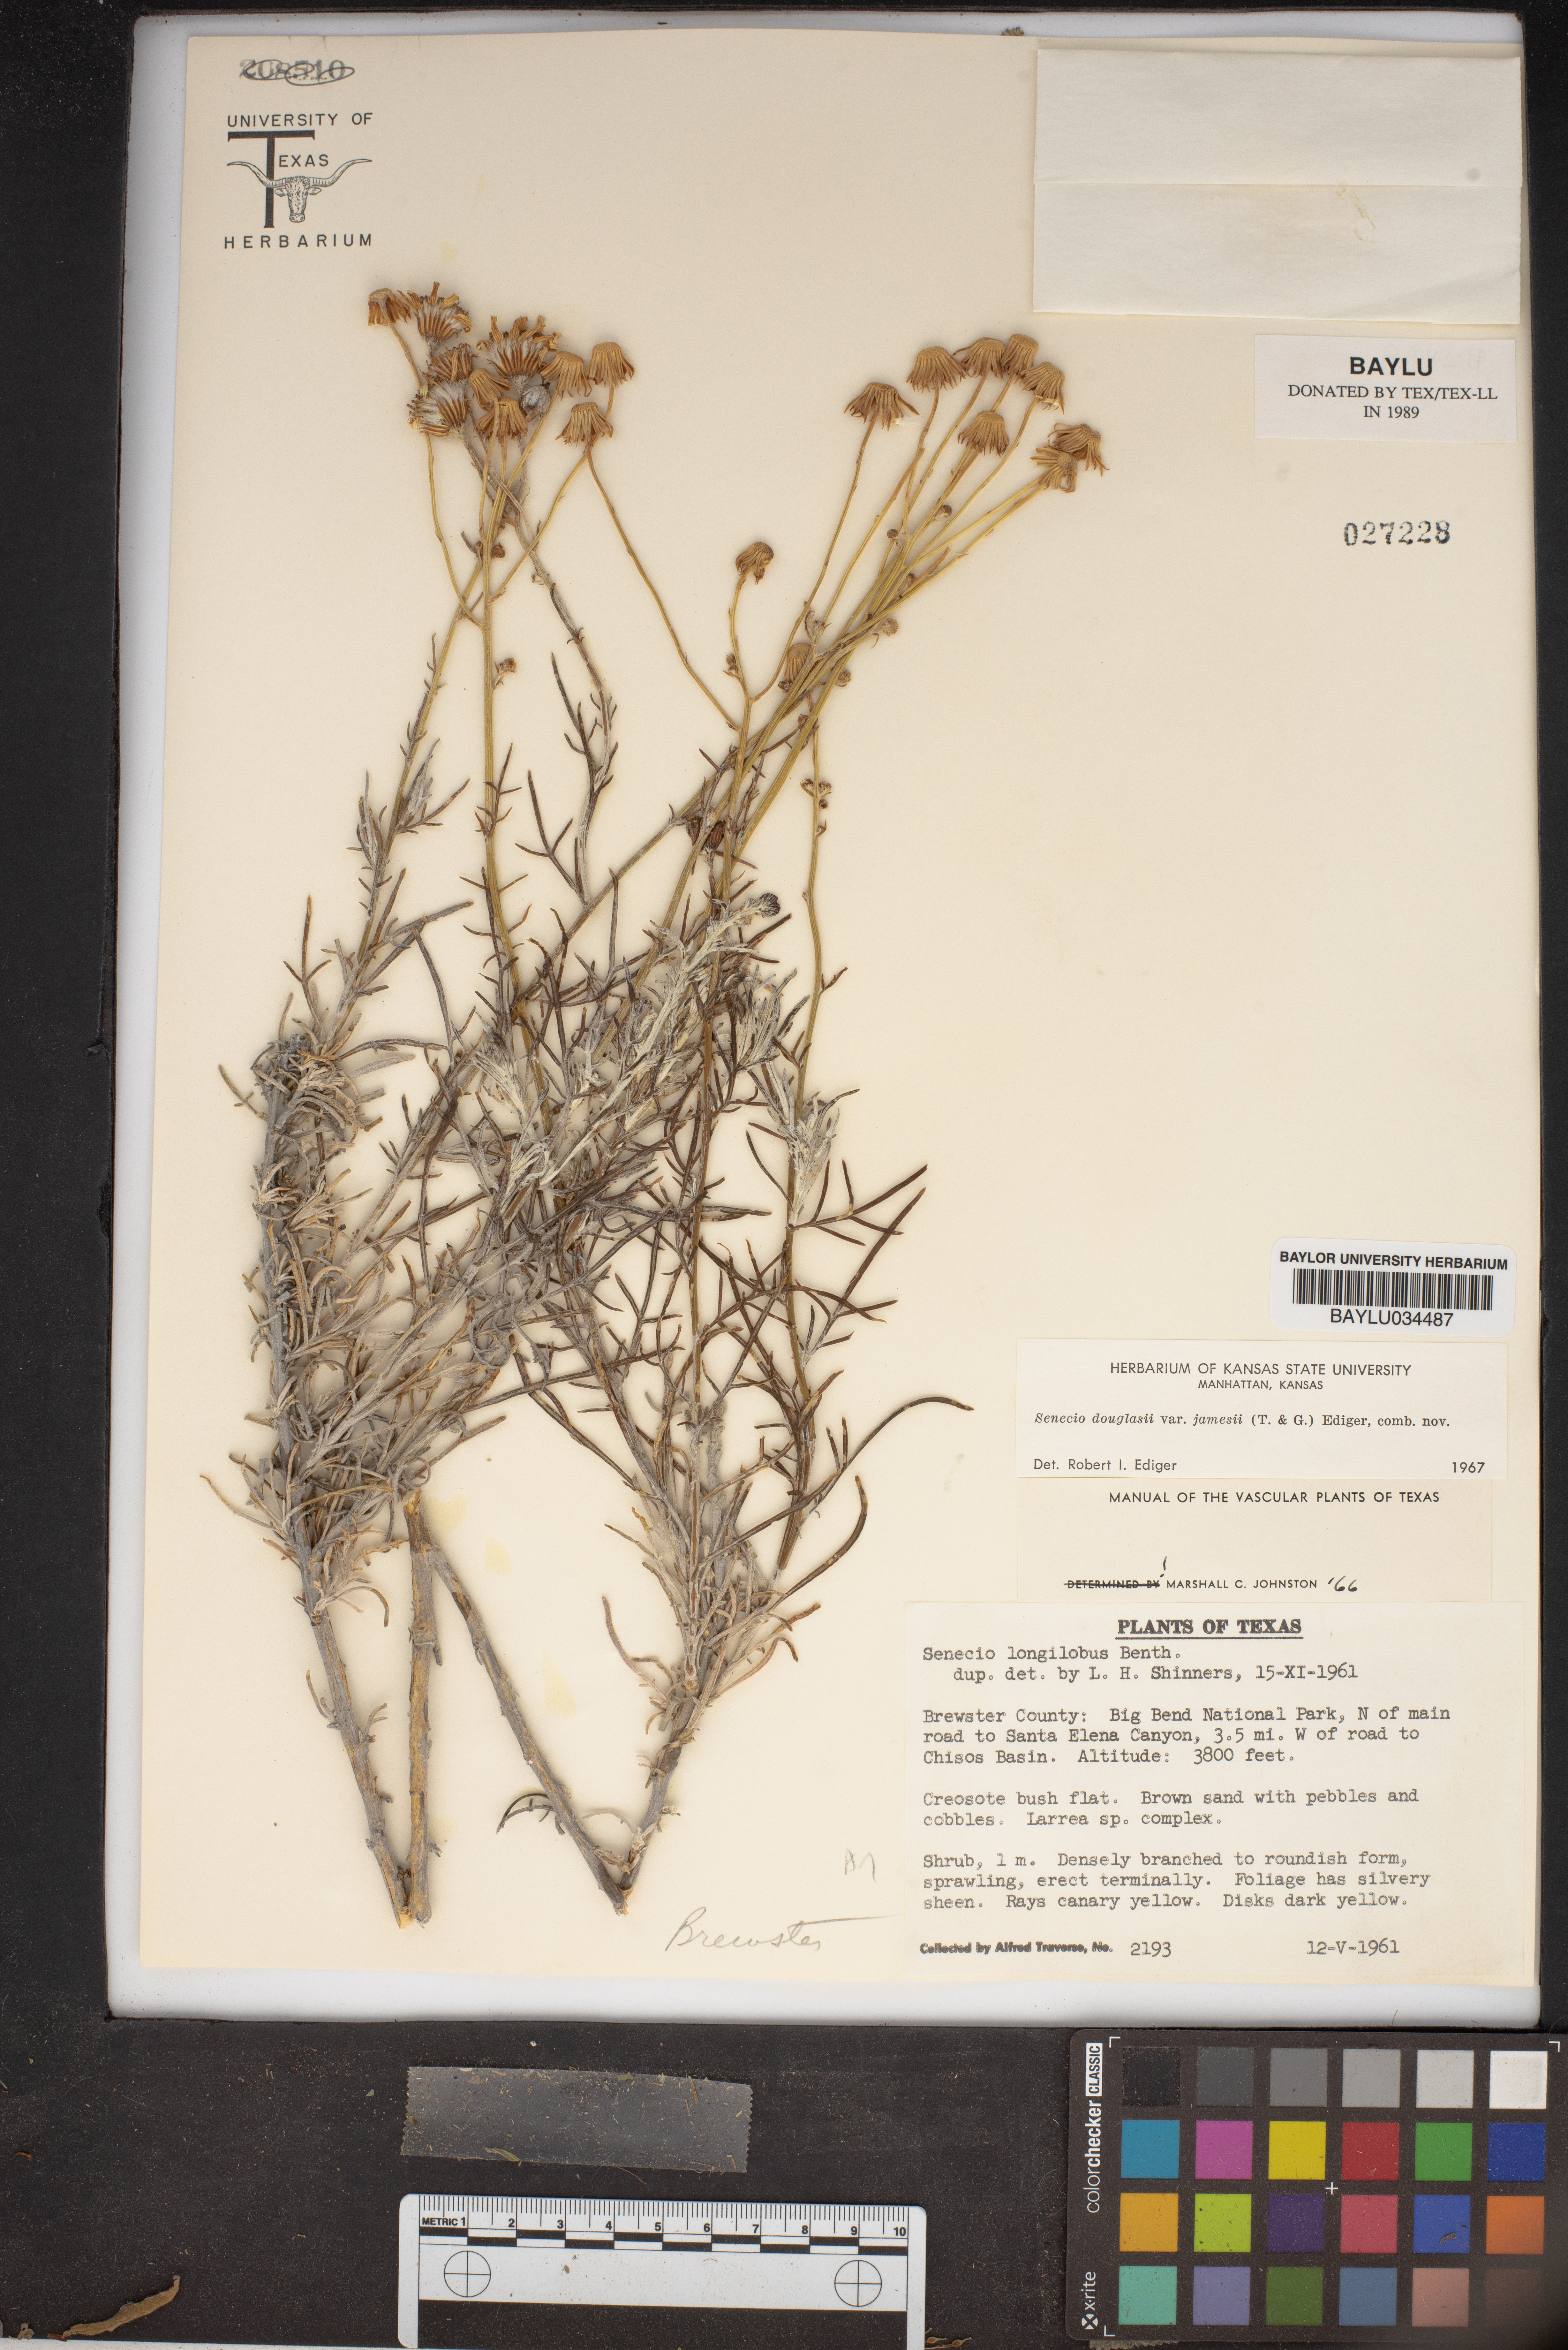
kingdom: Plantae
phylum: Tracheophyta
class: Magnoliopsida
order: Asterales
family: Asteraceae
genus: Senecio
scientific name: Senecio flaccidus
